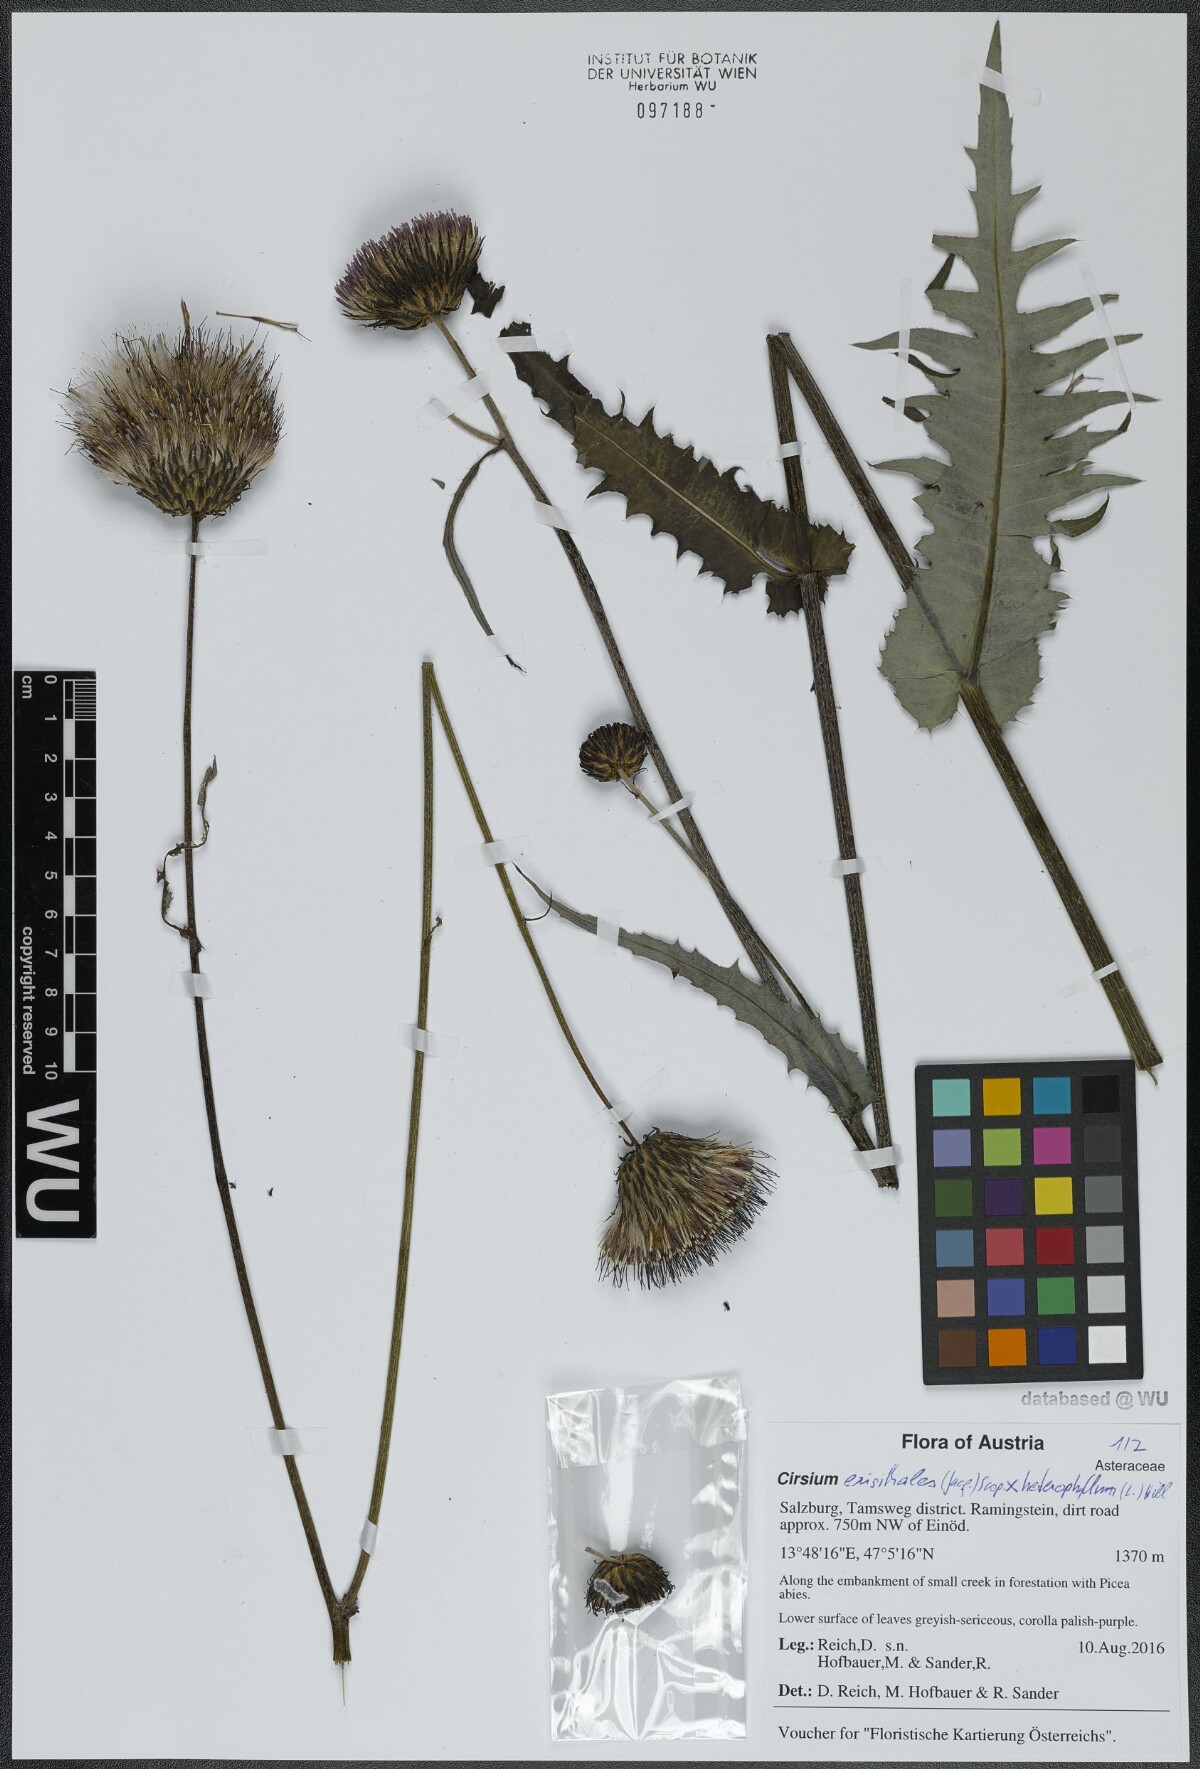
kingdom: Plantae
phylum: Tracheophyta
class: Magnoliopsida
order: Asterales
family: Asteraceae
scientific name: Asteraceae
